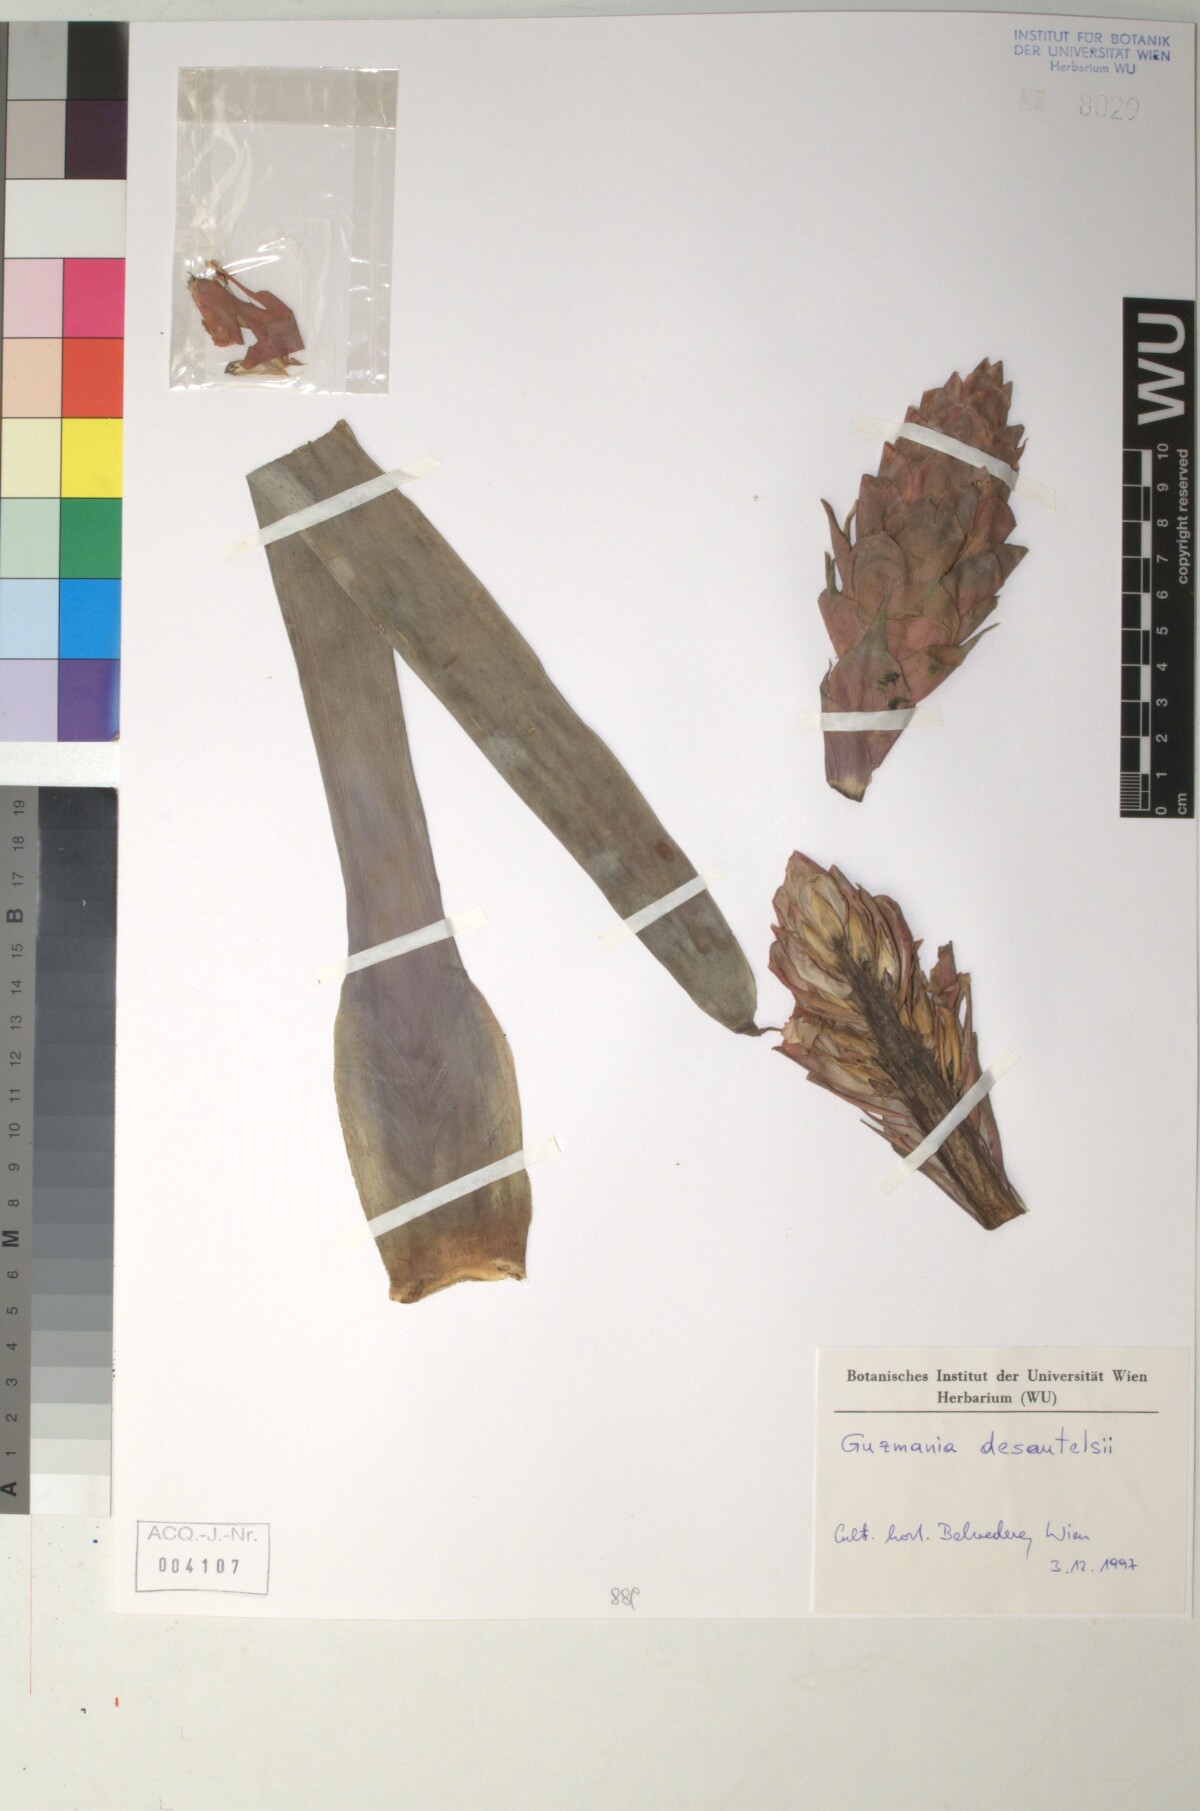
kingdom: Plantae
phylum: Tracheophyta
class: Liliopsida
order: Poales
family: Bromeliaceae
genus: Guzmania
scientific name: Guzmania desautelsii
